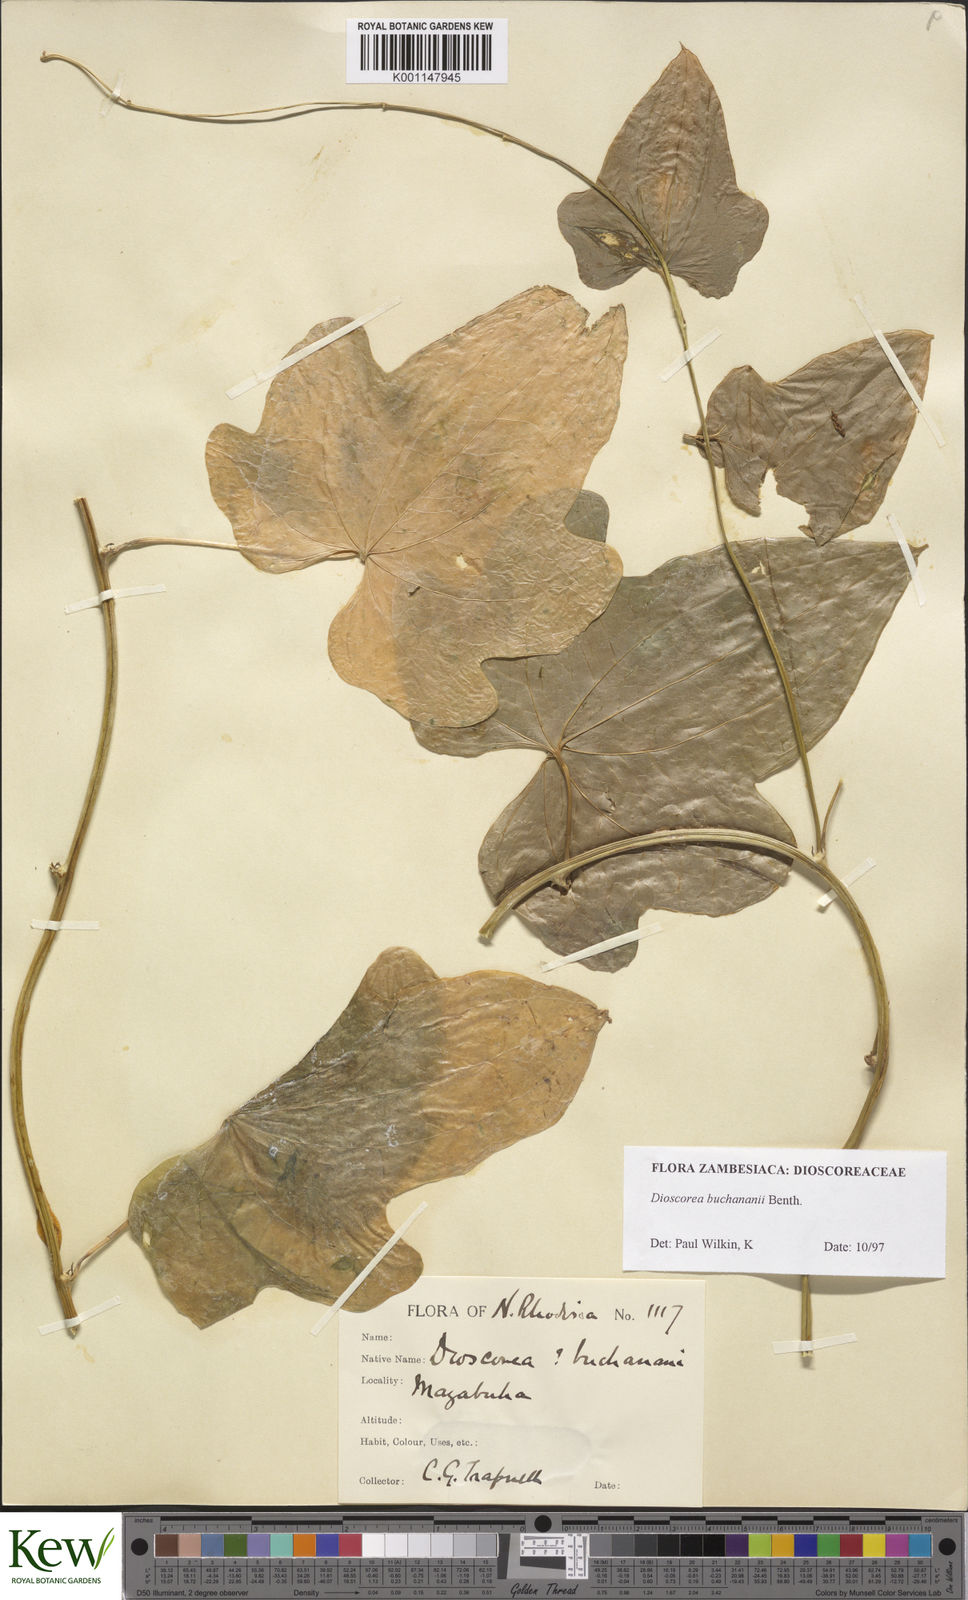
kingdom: Plantae
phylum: Tracheophyta
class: Liliopsida
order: Dioscoreales
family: Dioscoreaceae
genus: Dioscorea
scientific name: Dioscorea buchananii
